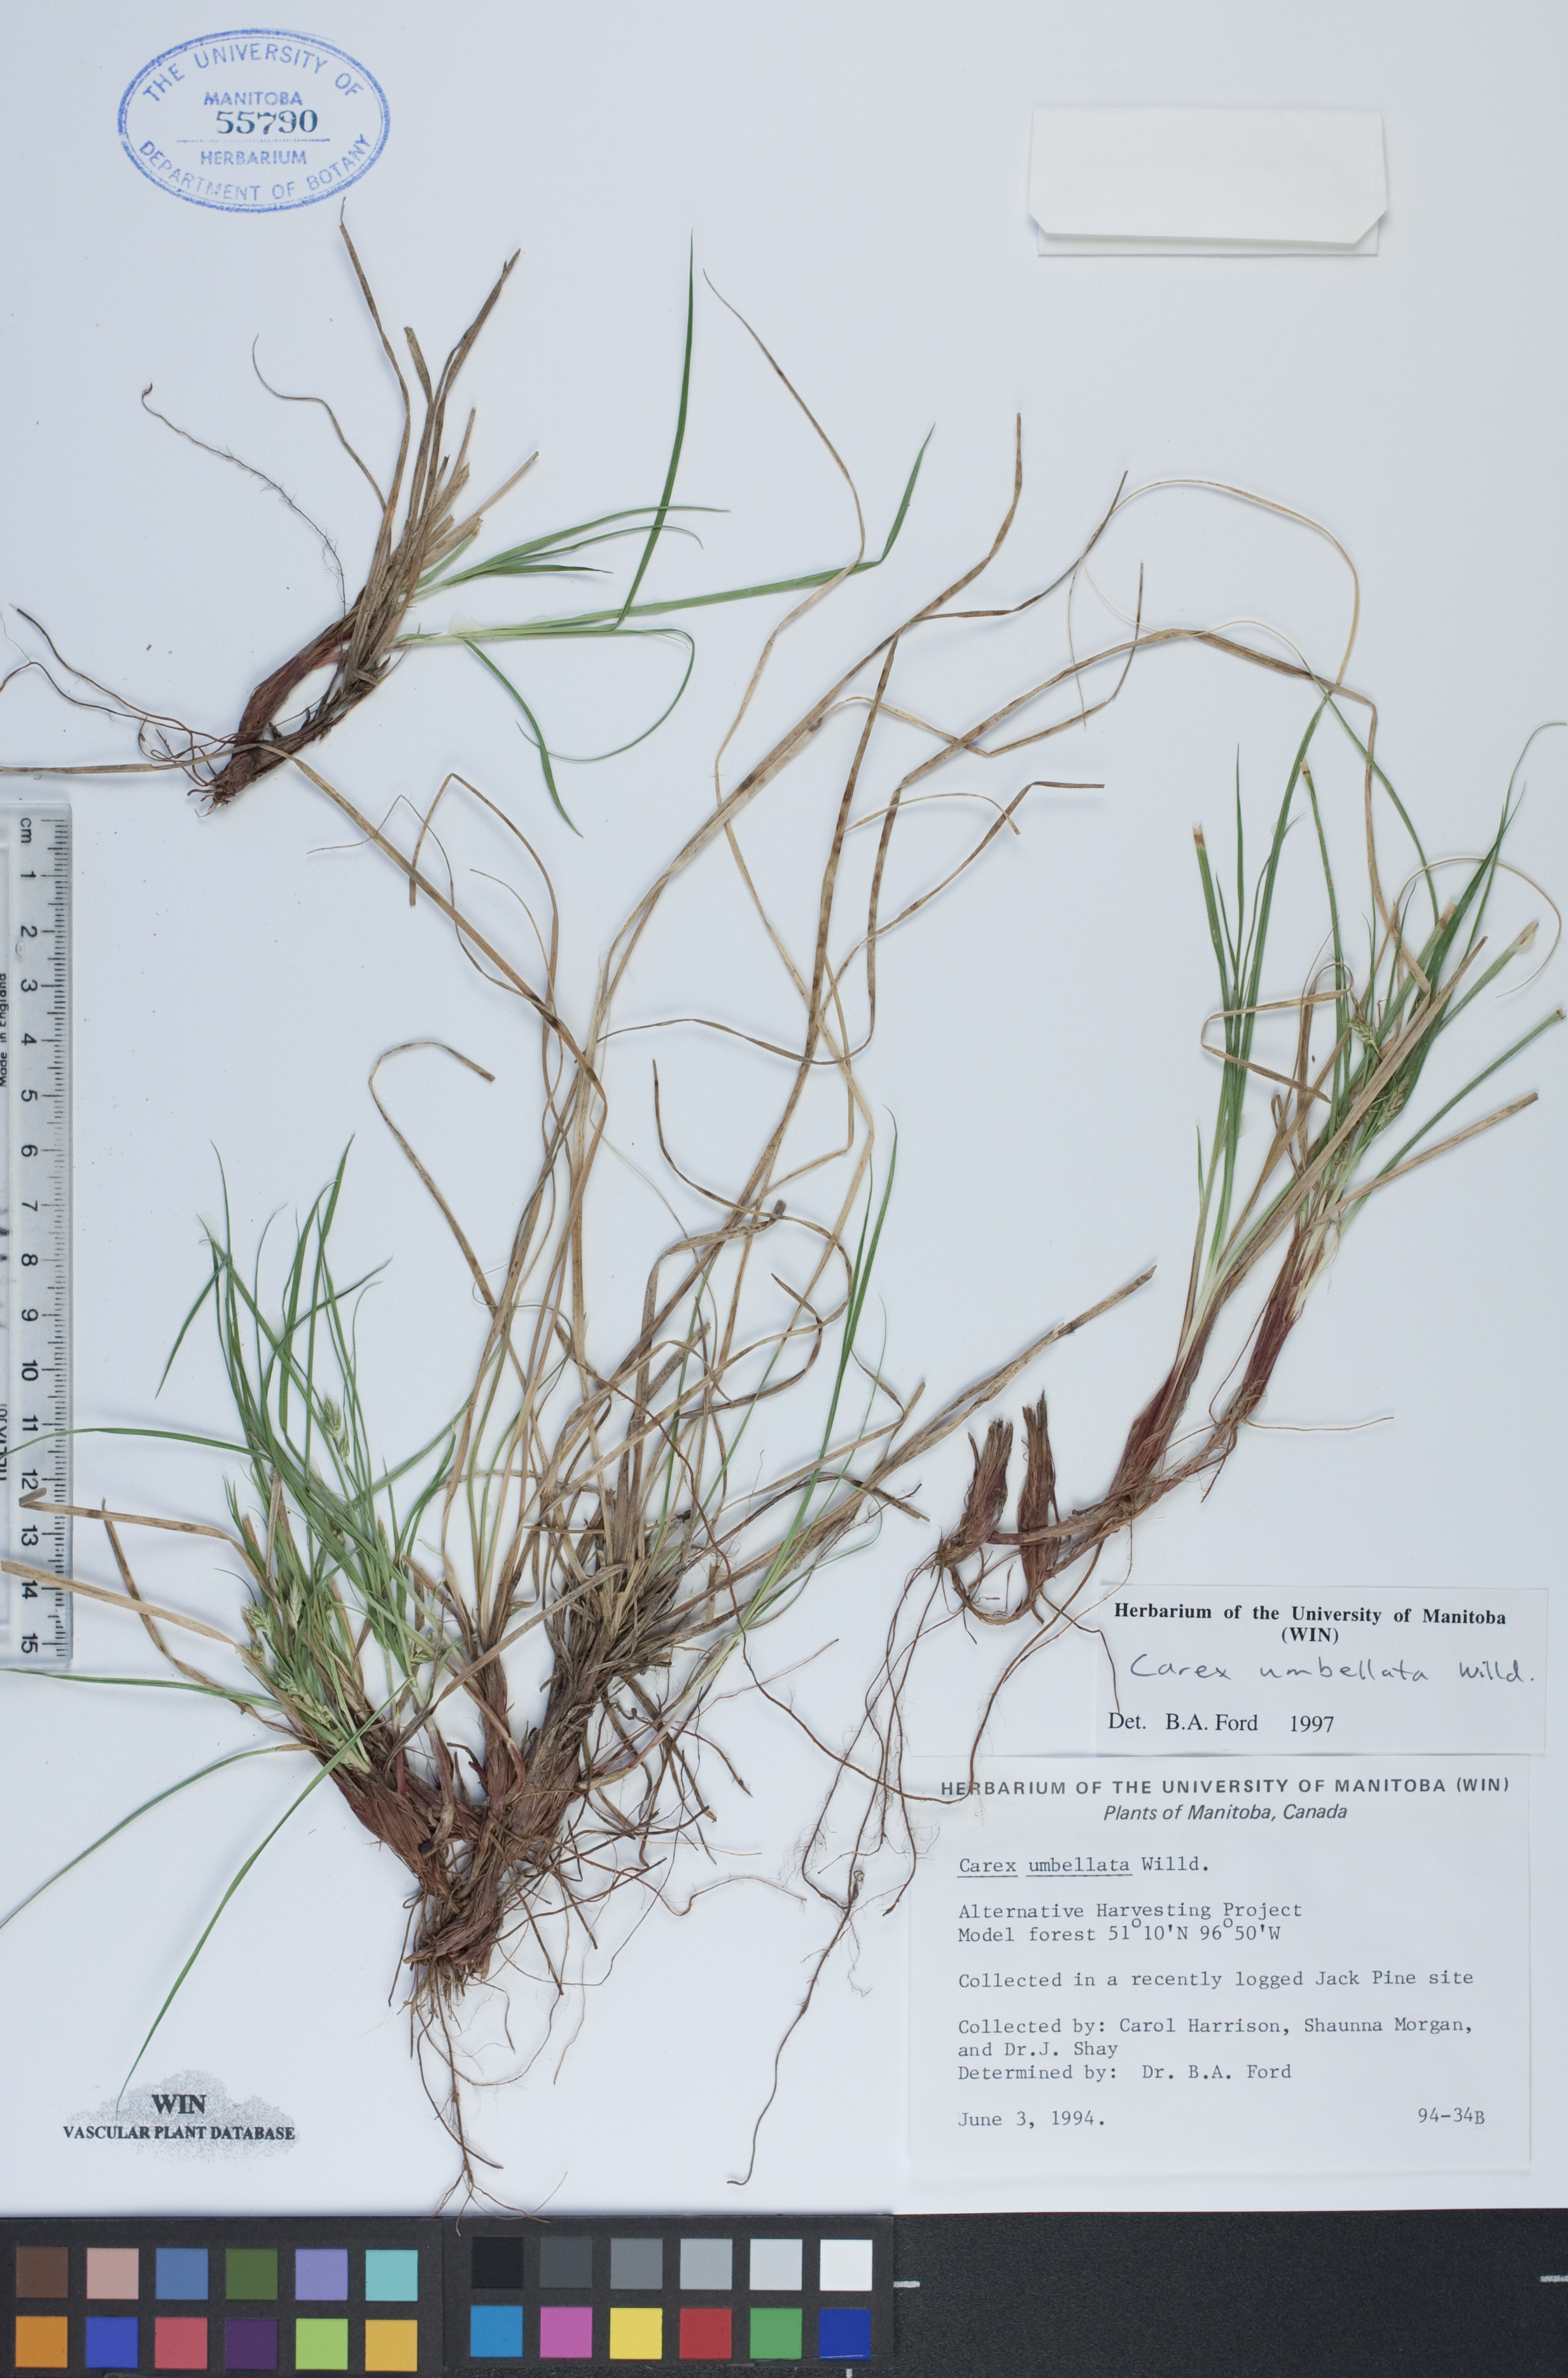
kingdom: Plantae
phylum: Tracheophyta
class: Liliopsida
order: Poales
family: Cyperaceae
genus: Carex
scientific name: Carex umbellata
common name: Early oak sedge
